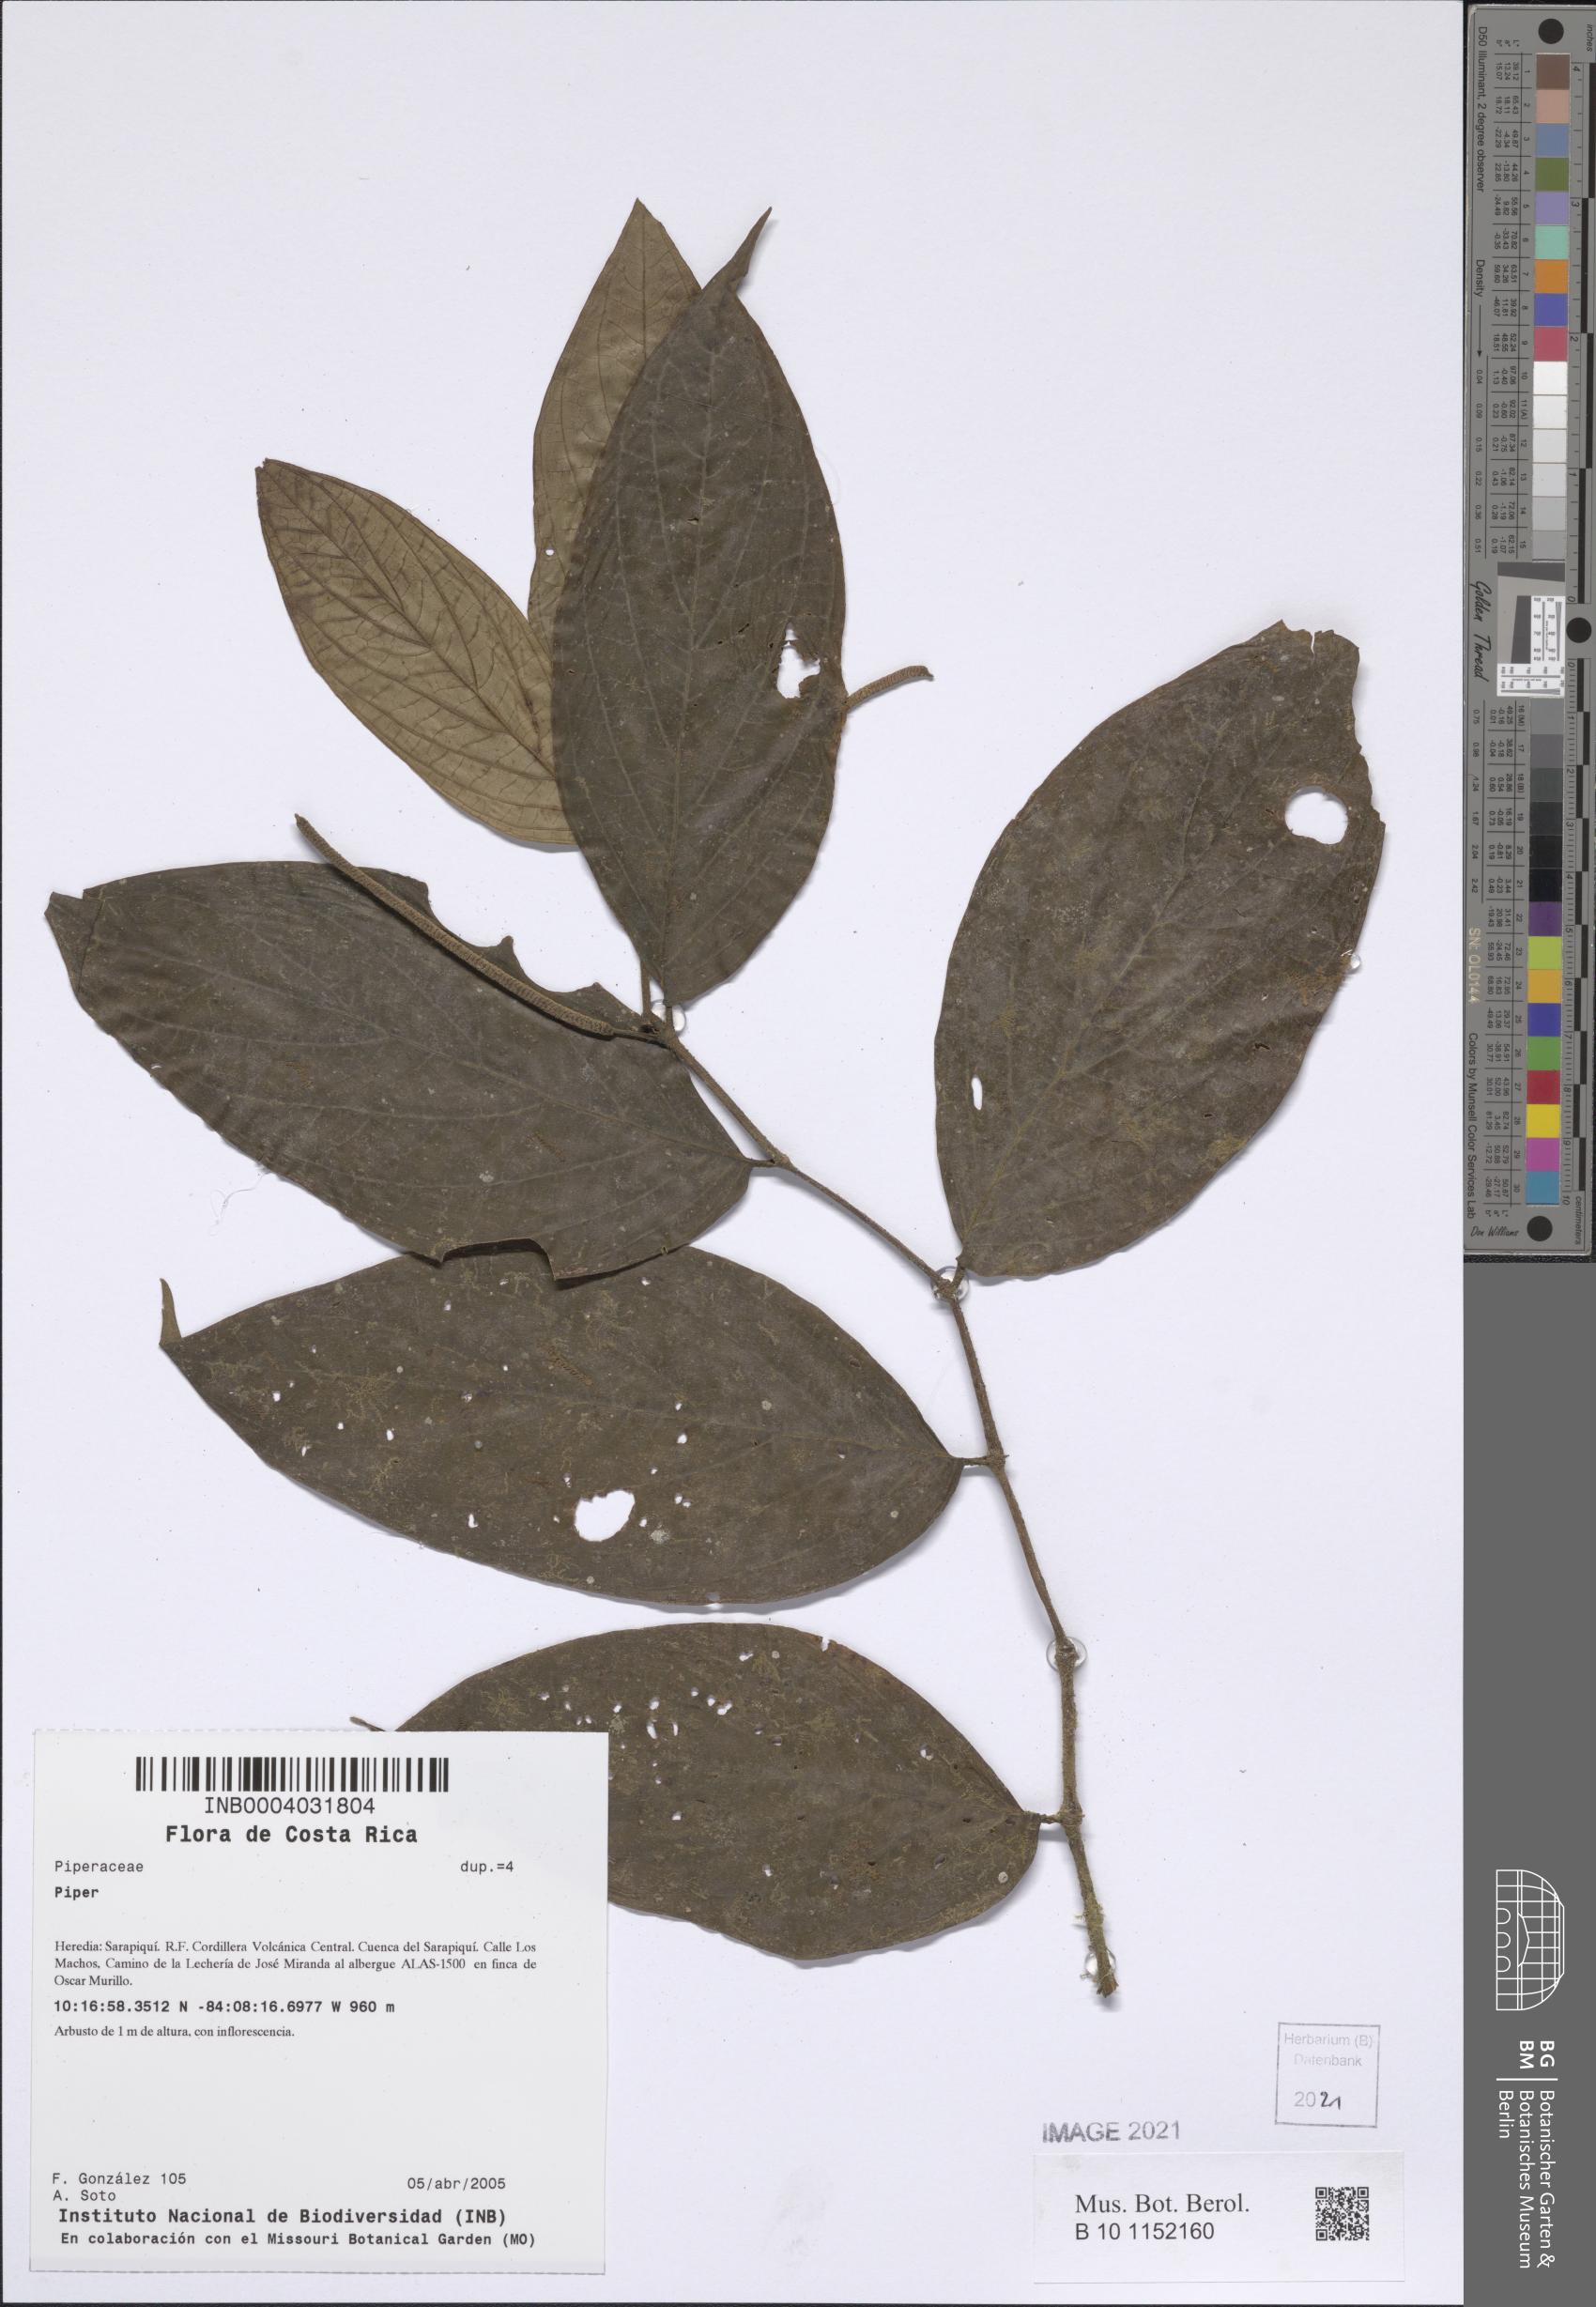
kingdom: Plantae
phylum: Tracheophyta
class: Magnoliopsida
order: Piperales
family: Piperaceae
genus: Piper
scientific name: Piper
